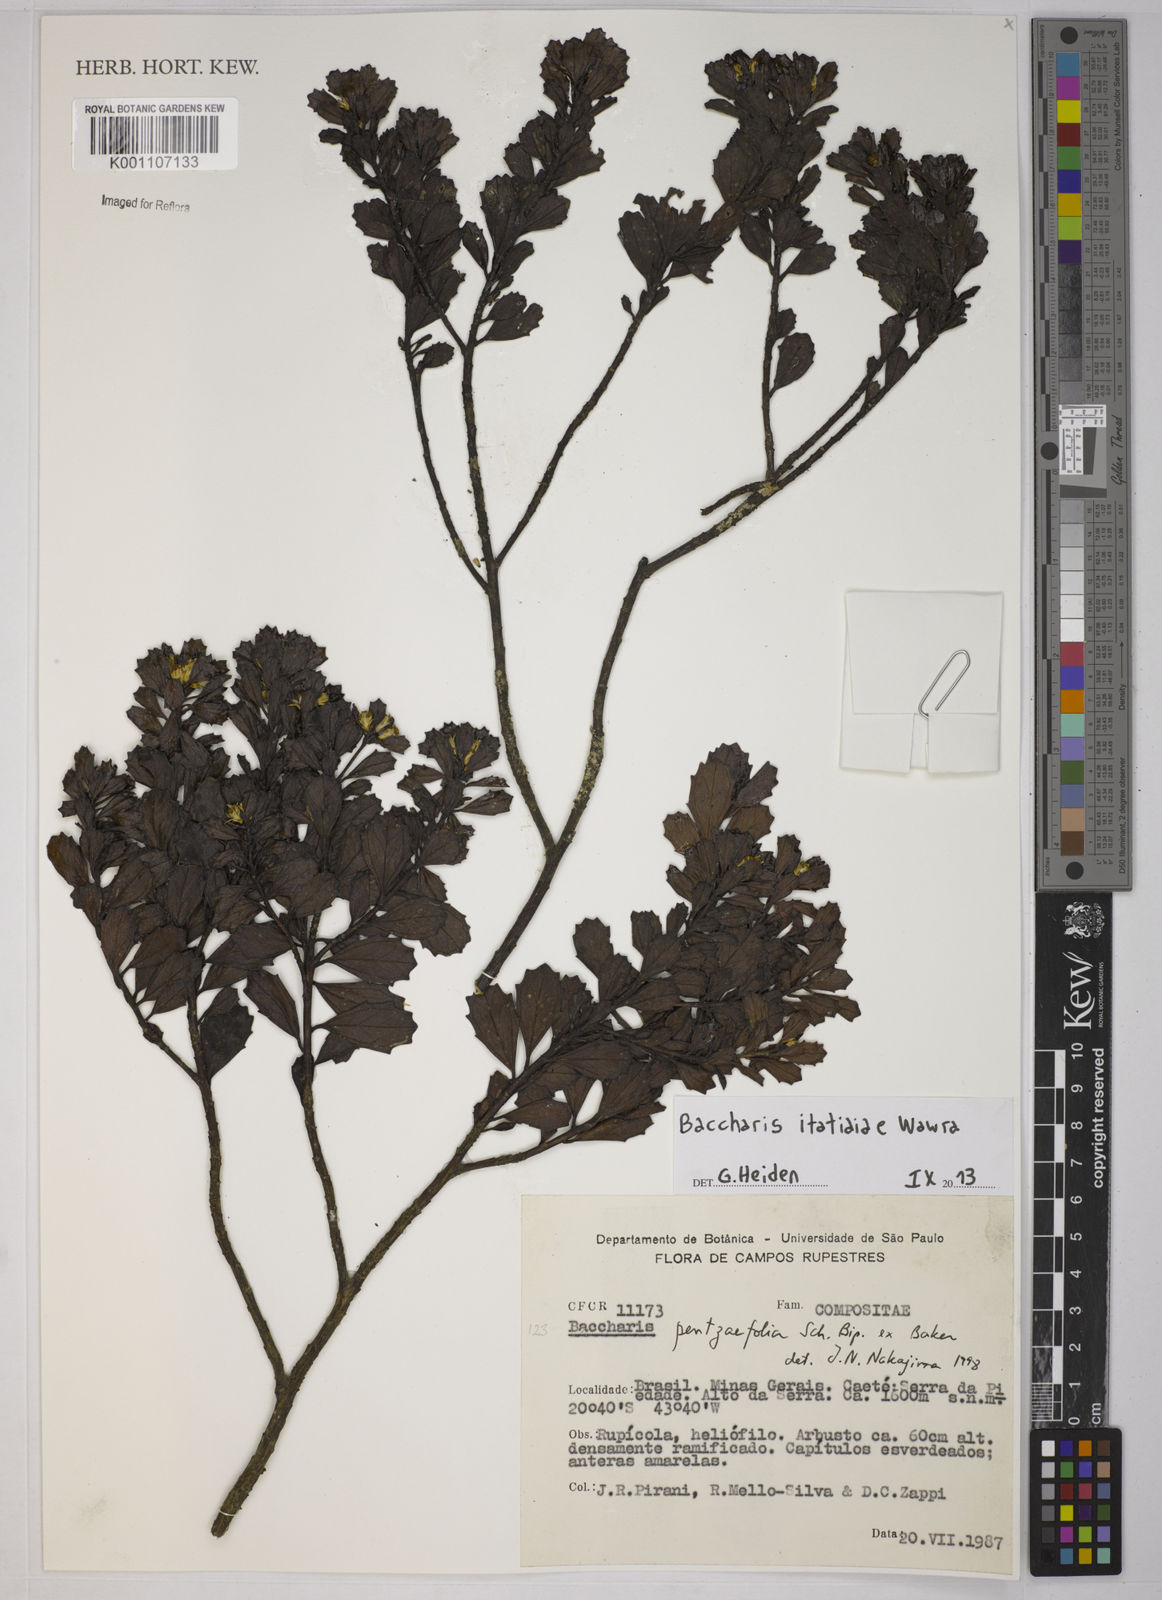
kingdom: Plantae
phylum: Tracheophyta
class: Magnoliopsida
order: Asterales
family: Asteraceae
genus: Baccharis
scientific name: Baccharis itatiaiae
